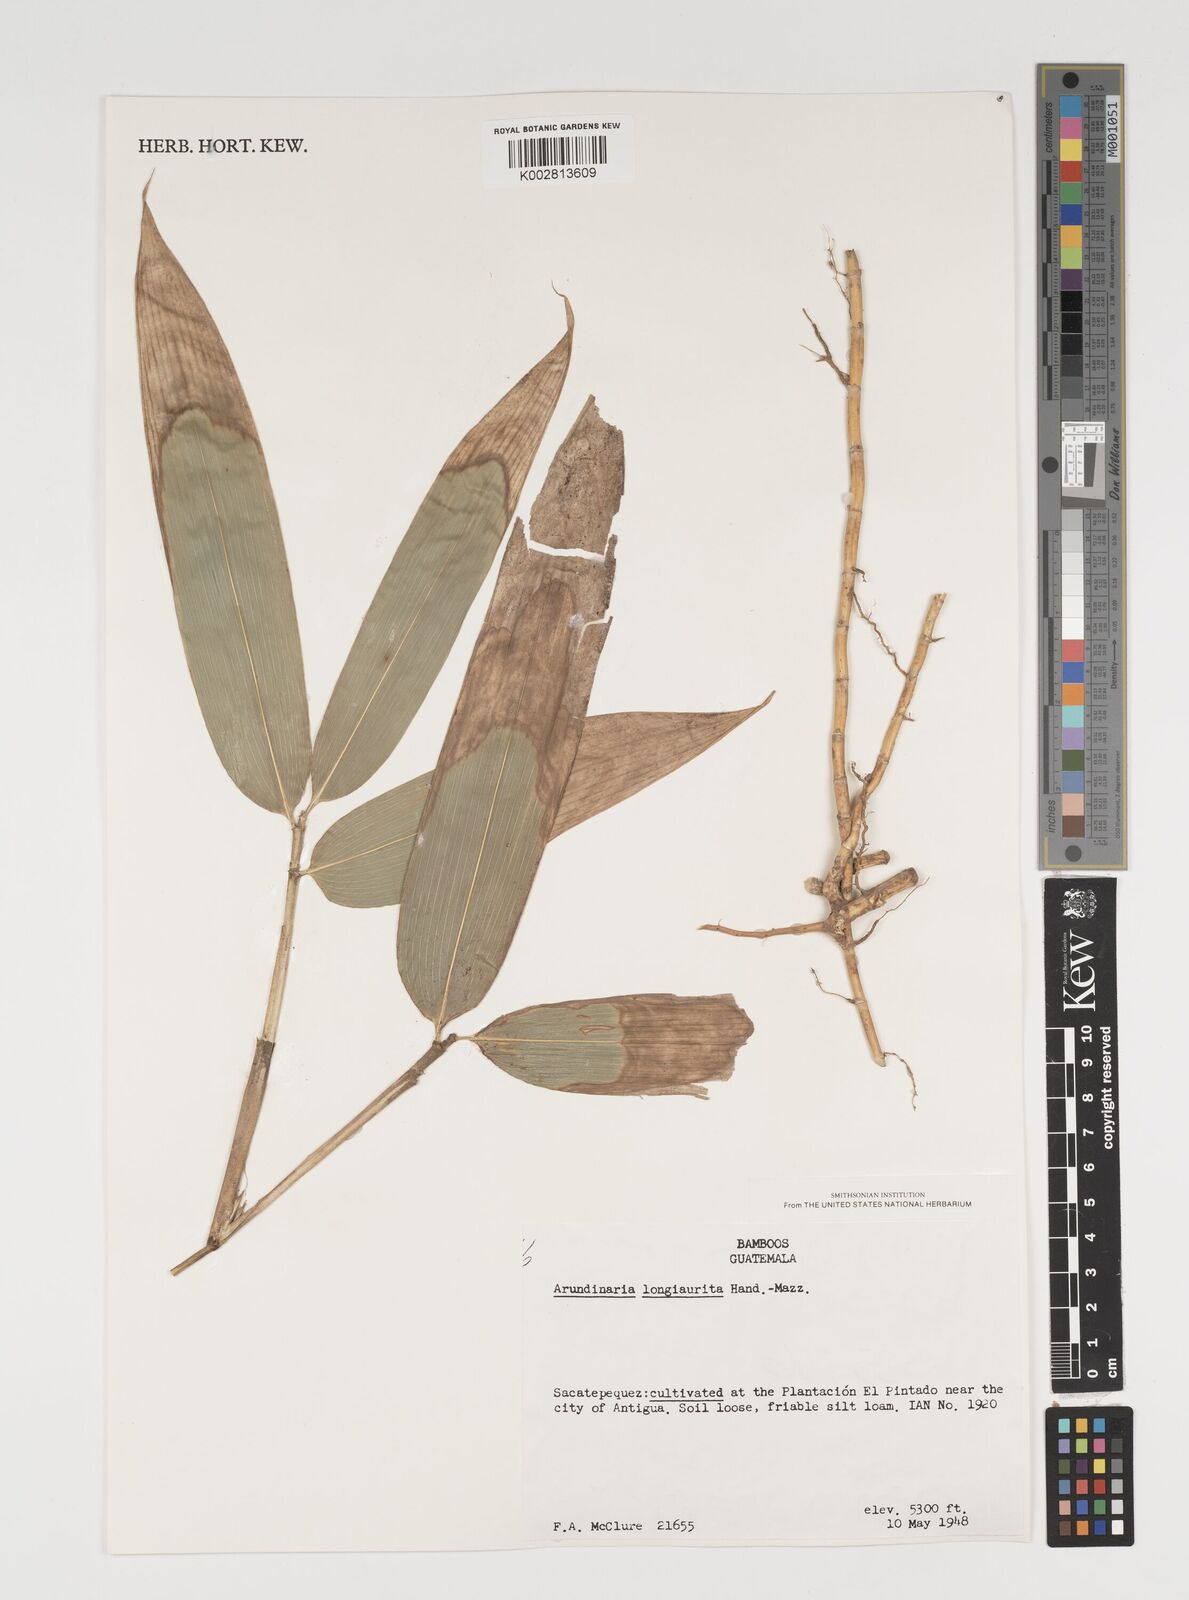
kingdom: Plantae
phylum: Tracheophyta
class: Liliopsida
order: Poales
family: Poaceae
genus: Indocalamus
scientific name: Indocalamus longiauritus
